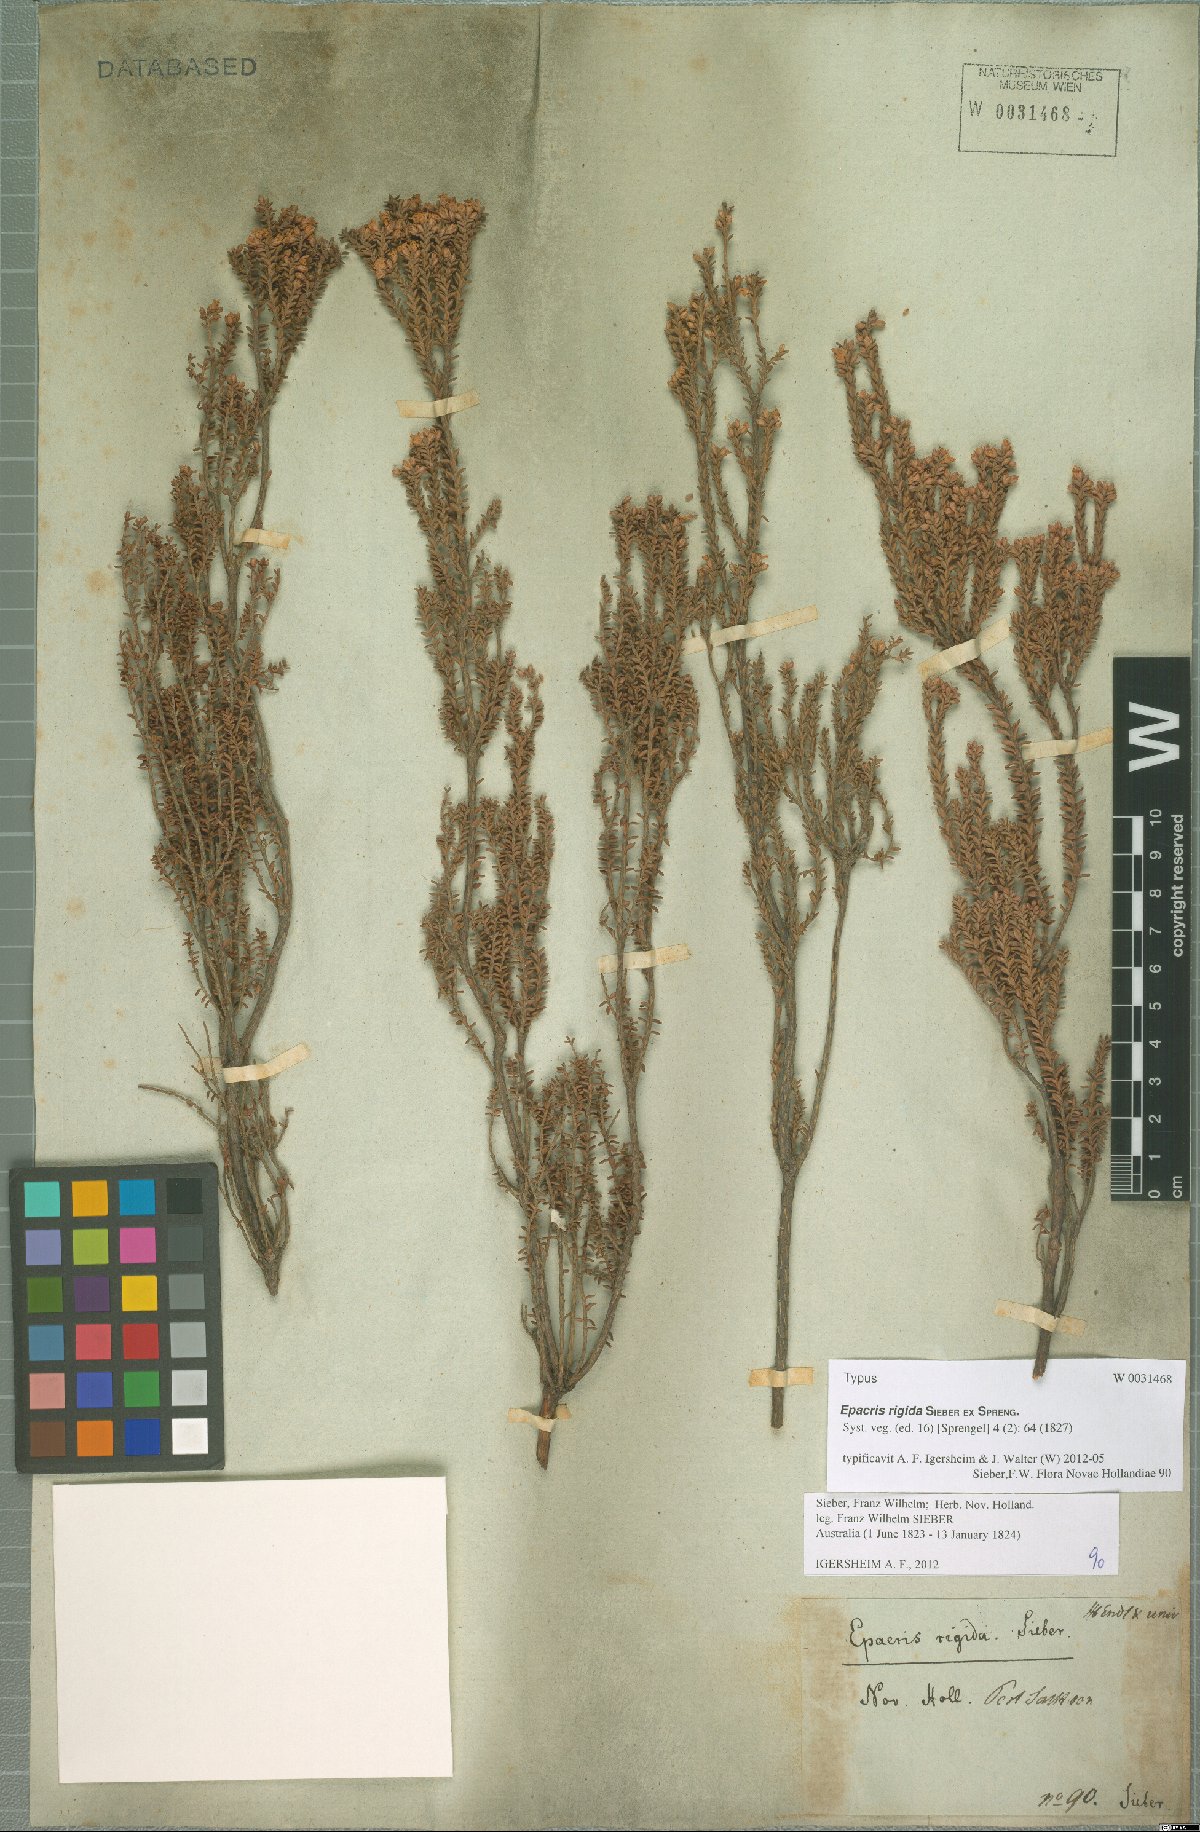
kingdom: Plantae
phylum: Tracheophyta
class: Magnoliopsida
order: Ericales
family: Ericaceae
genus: Epacris
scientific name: Epacris rigida
